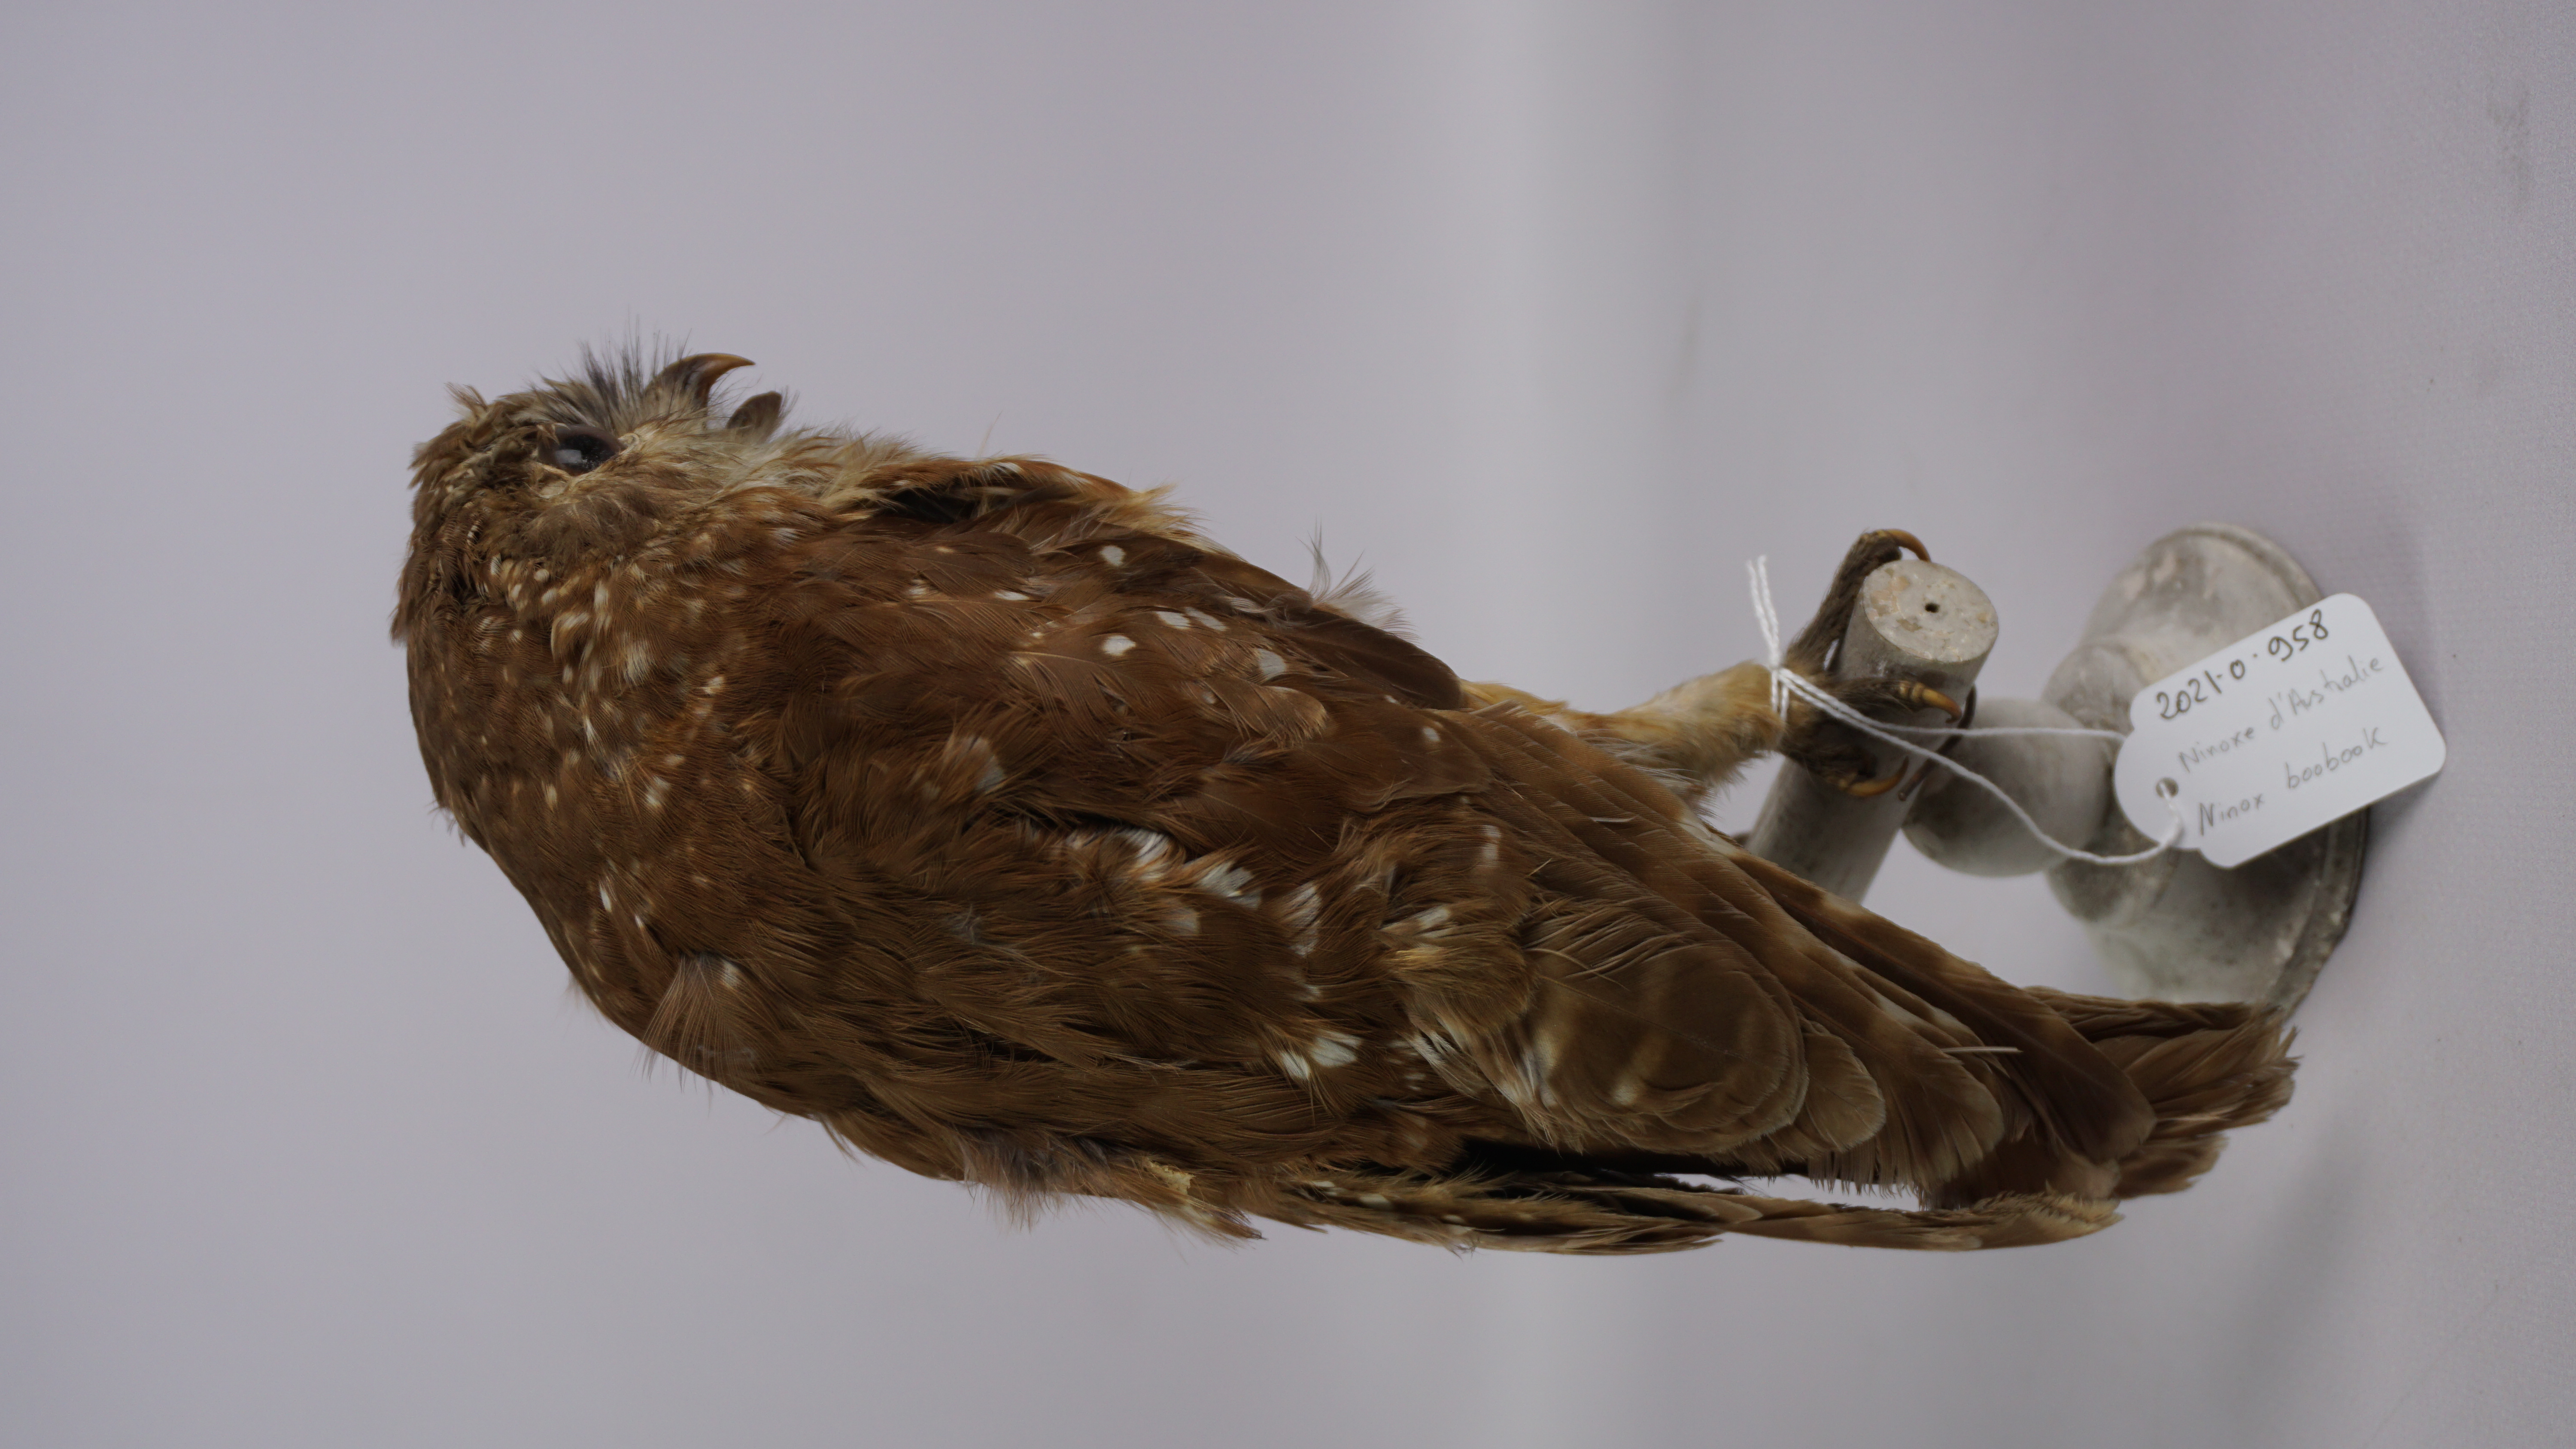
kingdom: Animalia
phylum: Chordata
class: Aves
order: Strigiformes
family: Strigidae
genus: Ninox
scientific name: Ninox boobook
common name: Southern boobook
